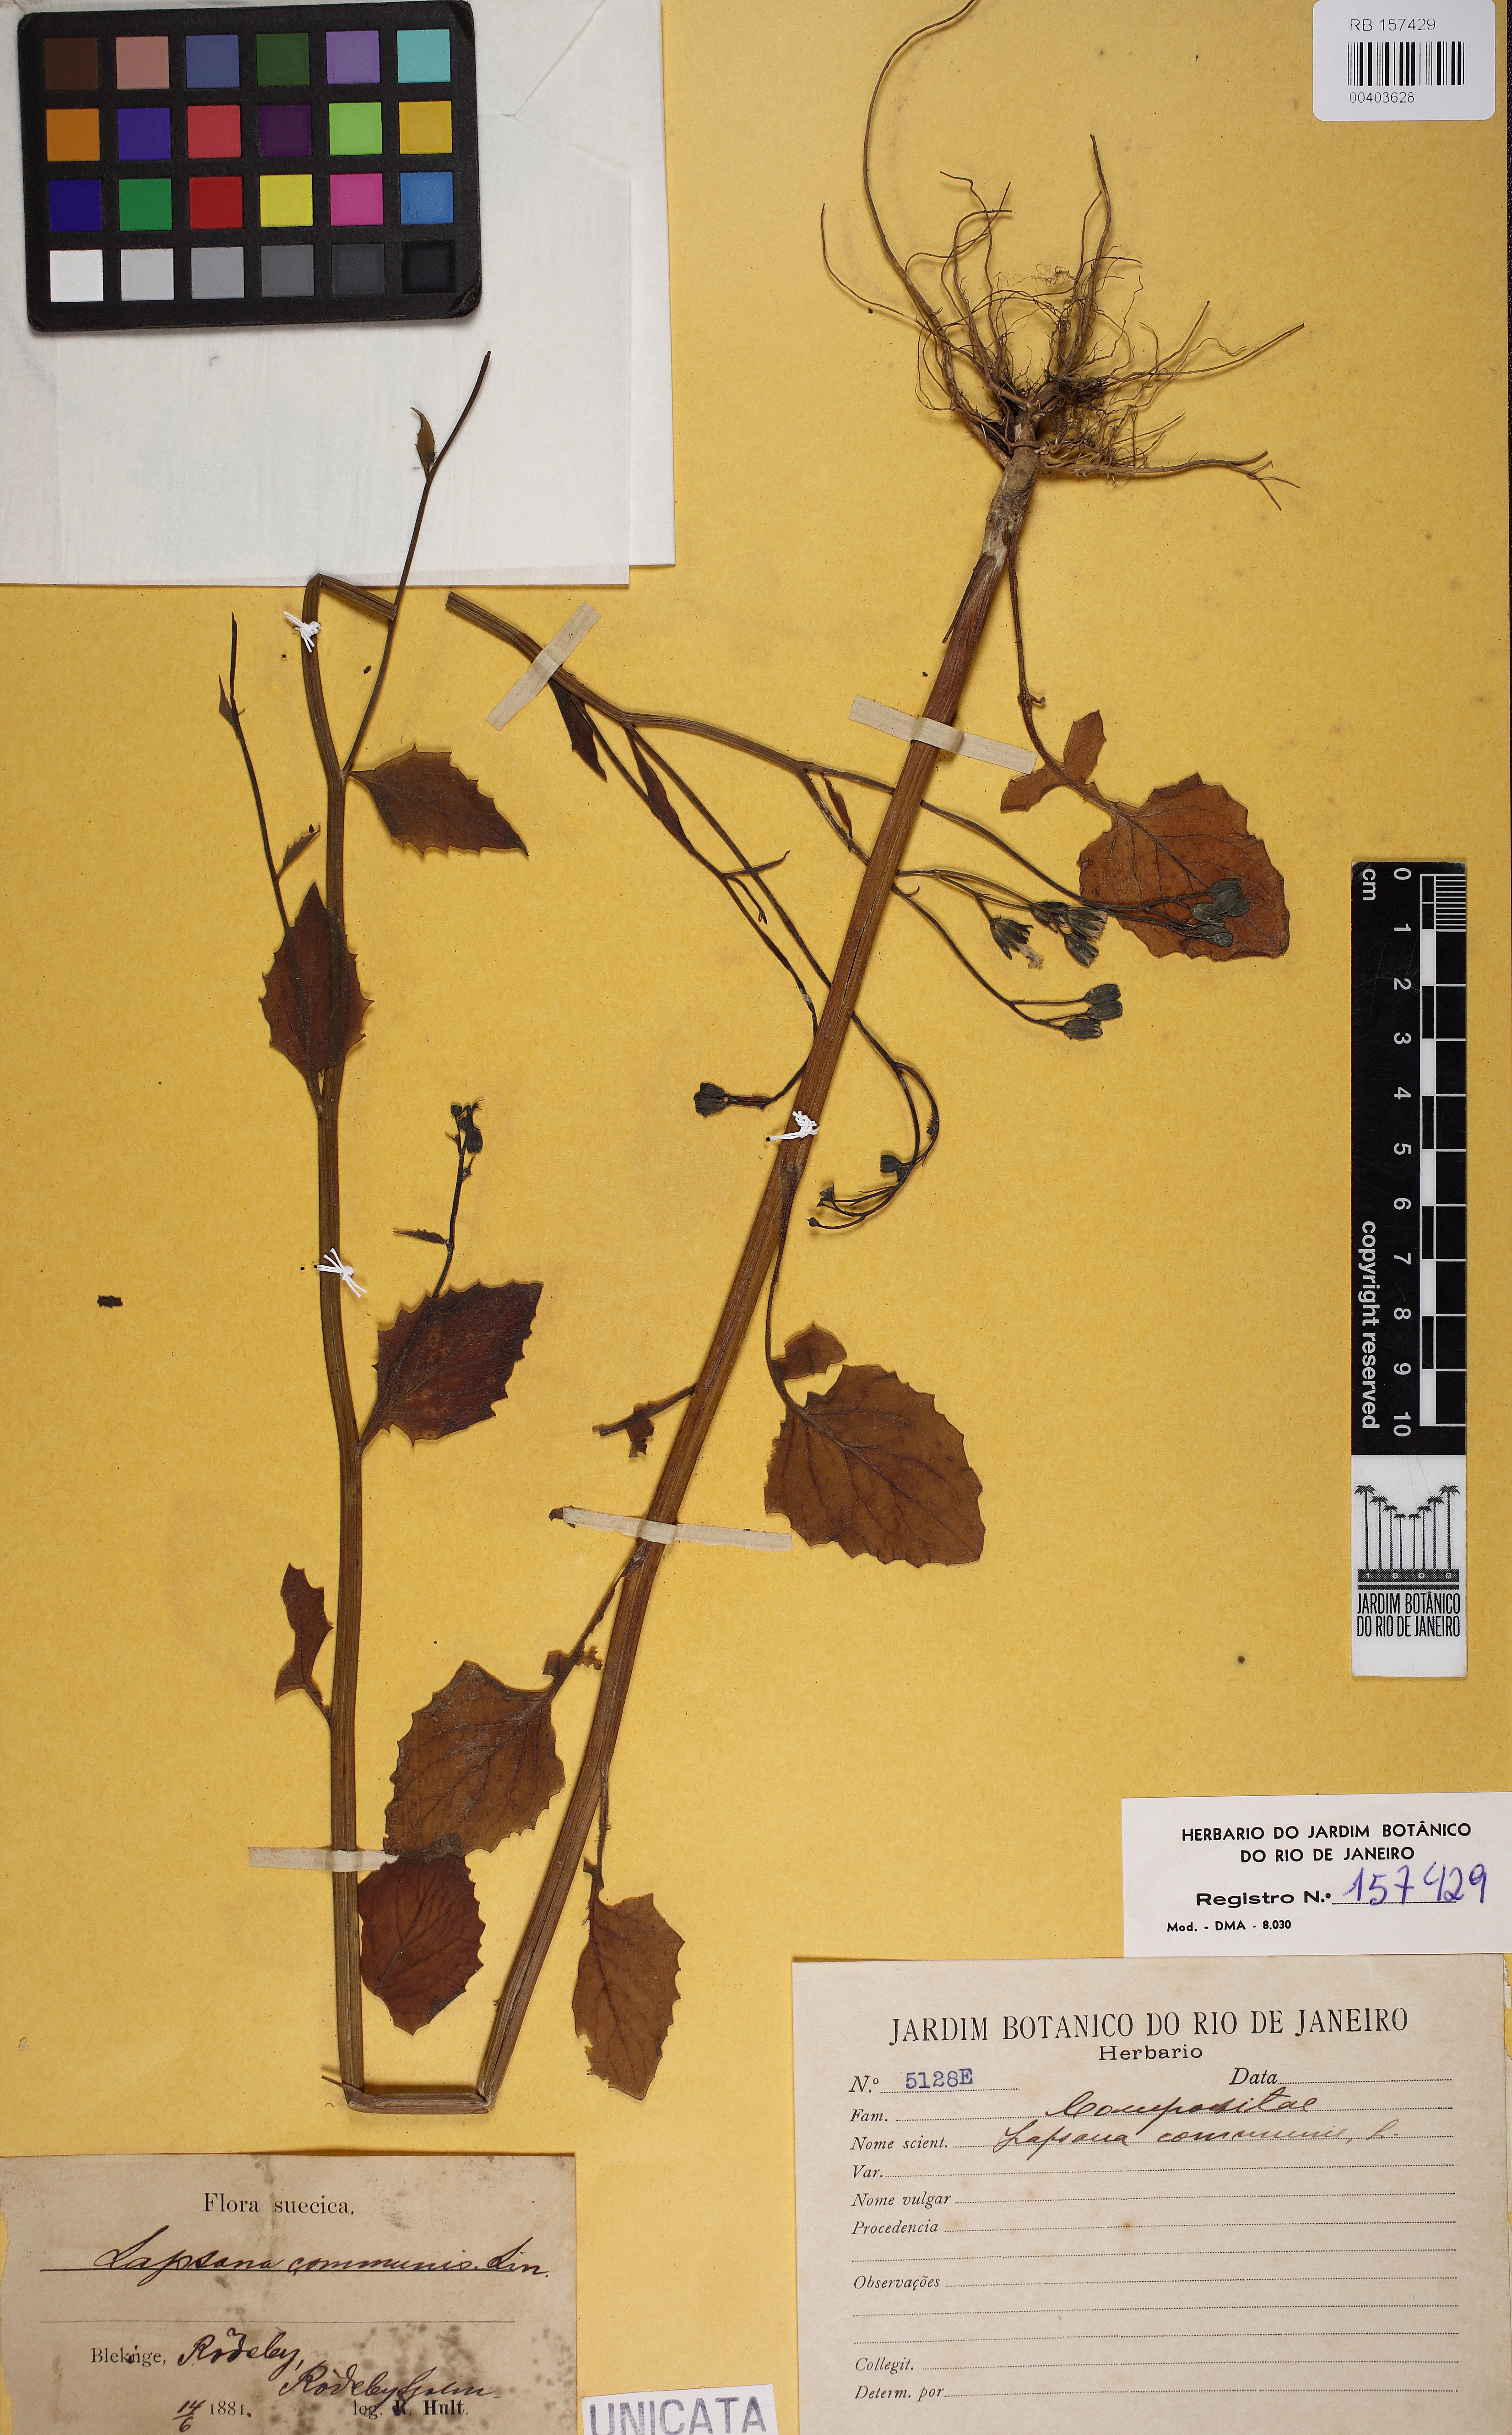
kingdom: Plantae
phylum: Tracheophyta
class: Magnoliopsida
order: Asterales
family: Asteraceae
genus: Lapsana
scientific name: Lapsana communis
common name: Nipplewort
